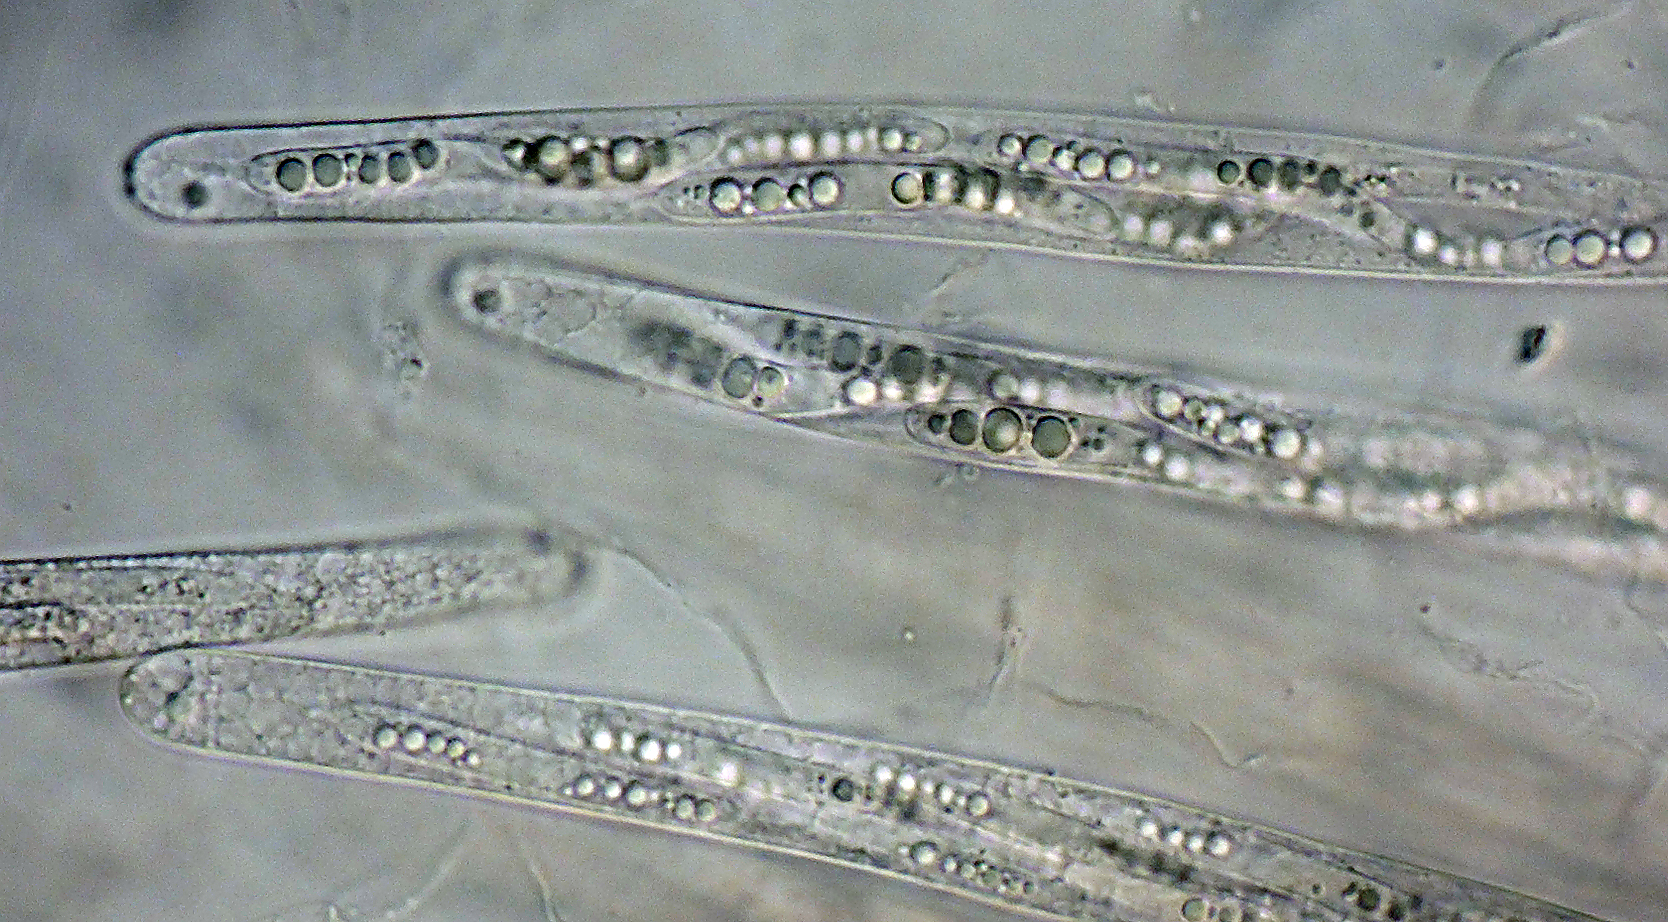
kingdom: Fungi
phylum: Ascomycota
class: Sordariomycetes
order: Sordariales
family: Bombardiaceae
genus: Bombardia
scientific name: Bombardia bombarda
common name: lædersæk-kernesvamp
